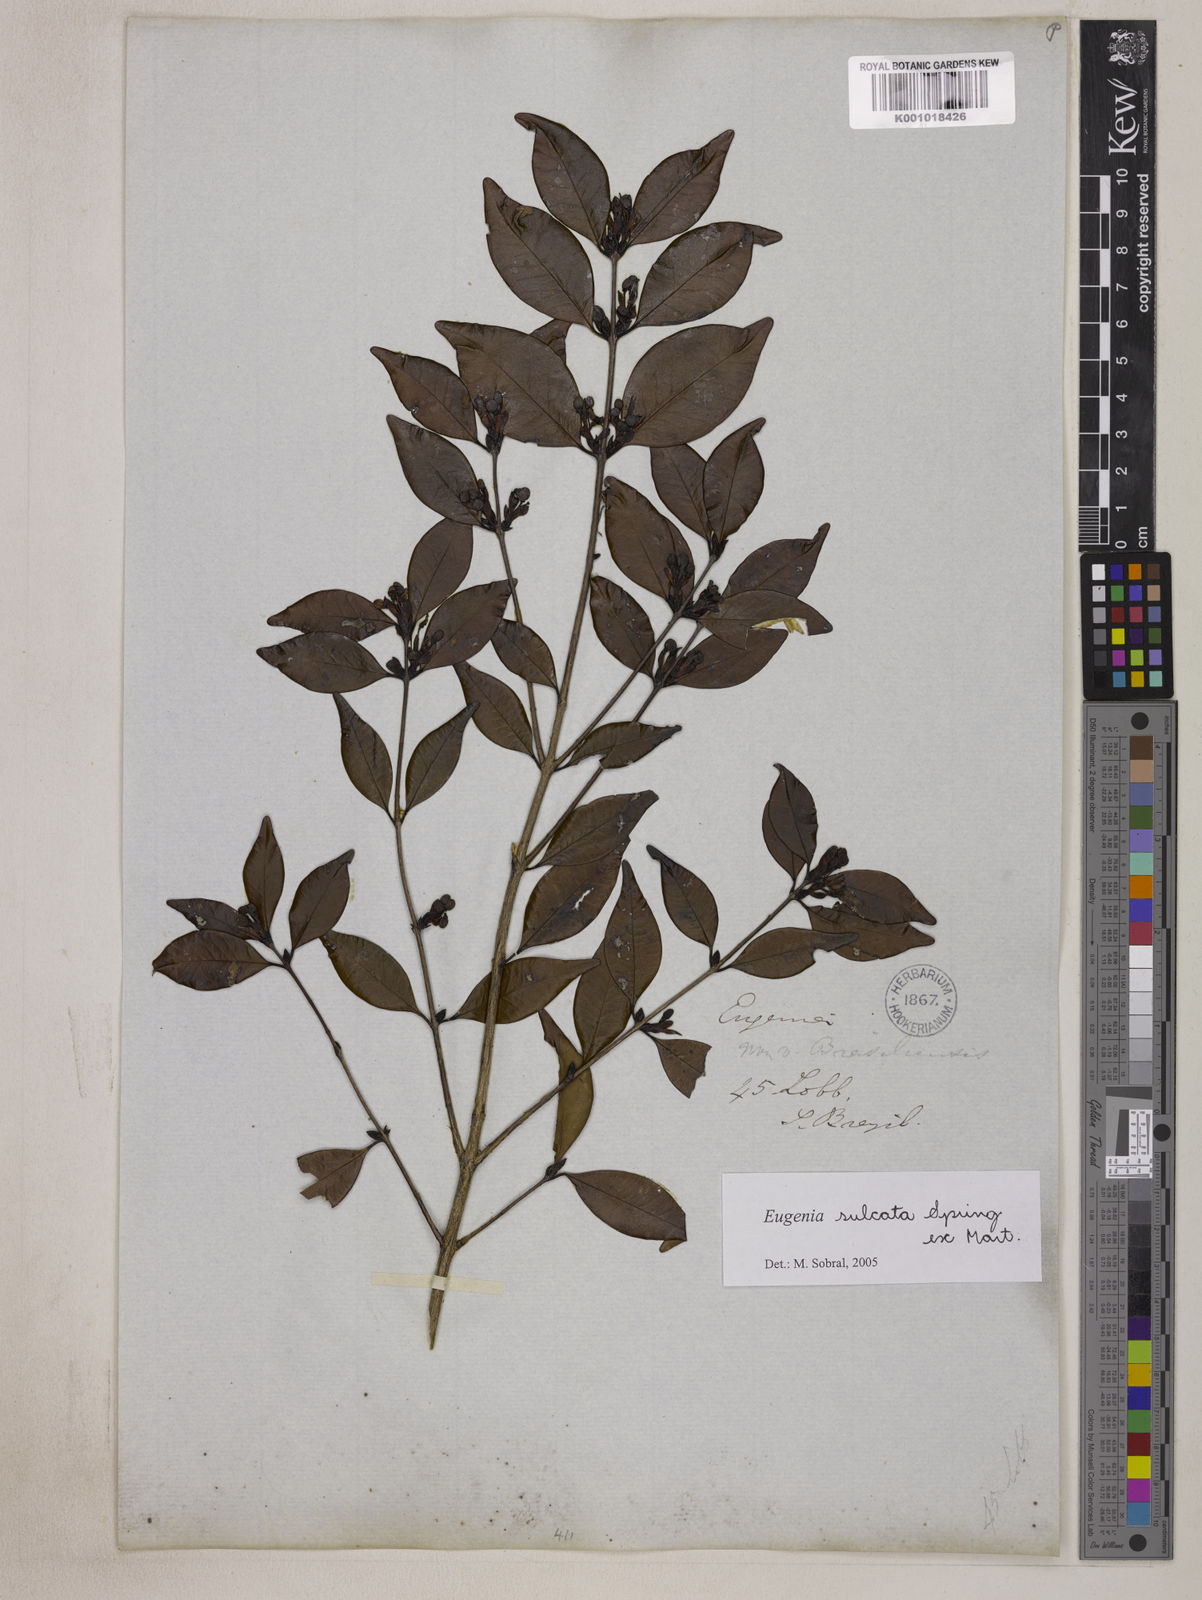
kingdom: Plantae
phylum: Tracheophyta
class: Magnoliopsida
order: Myrtales
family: Myrtaceae
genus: Eugenia
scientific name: Eugenia sulcata
